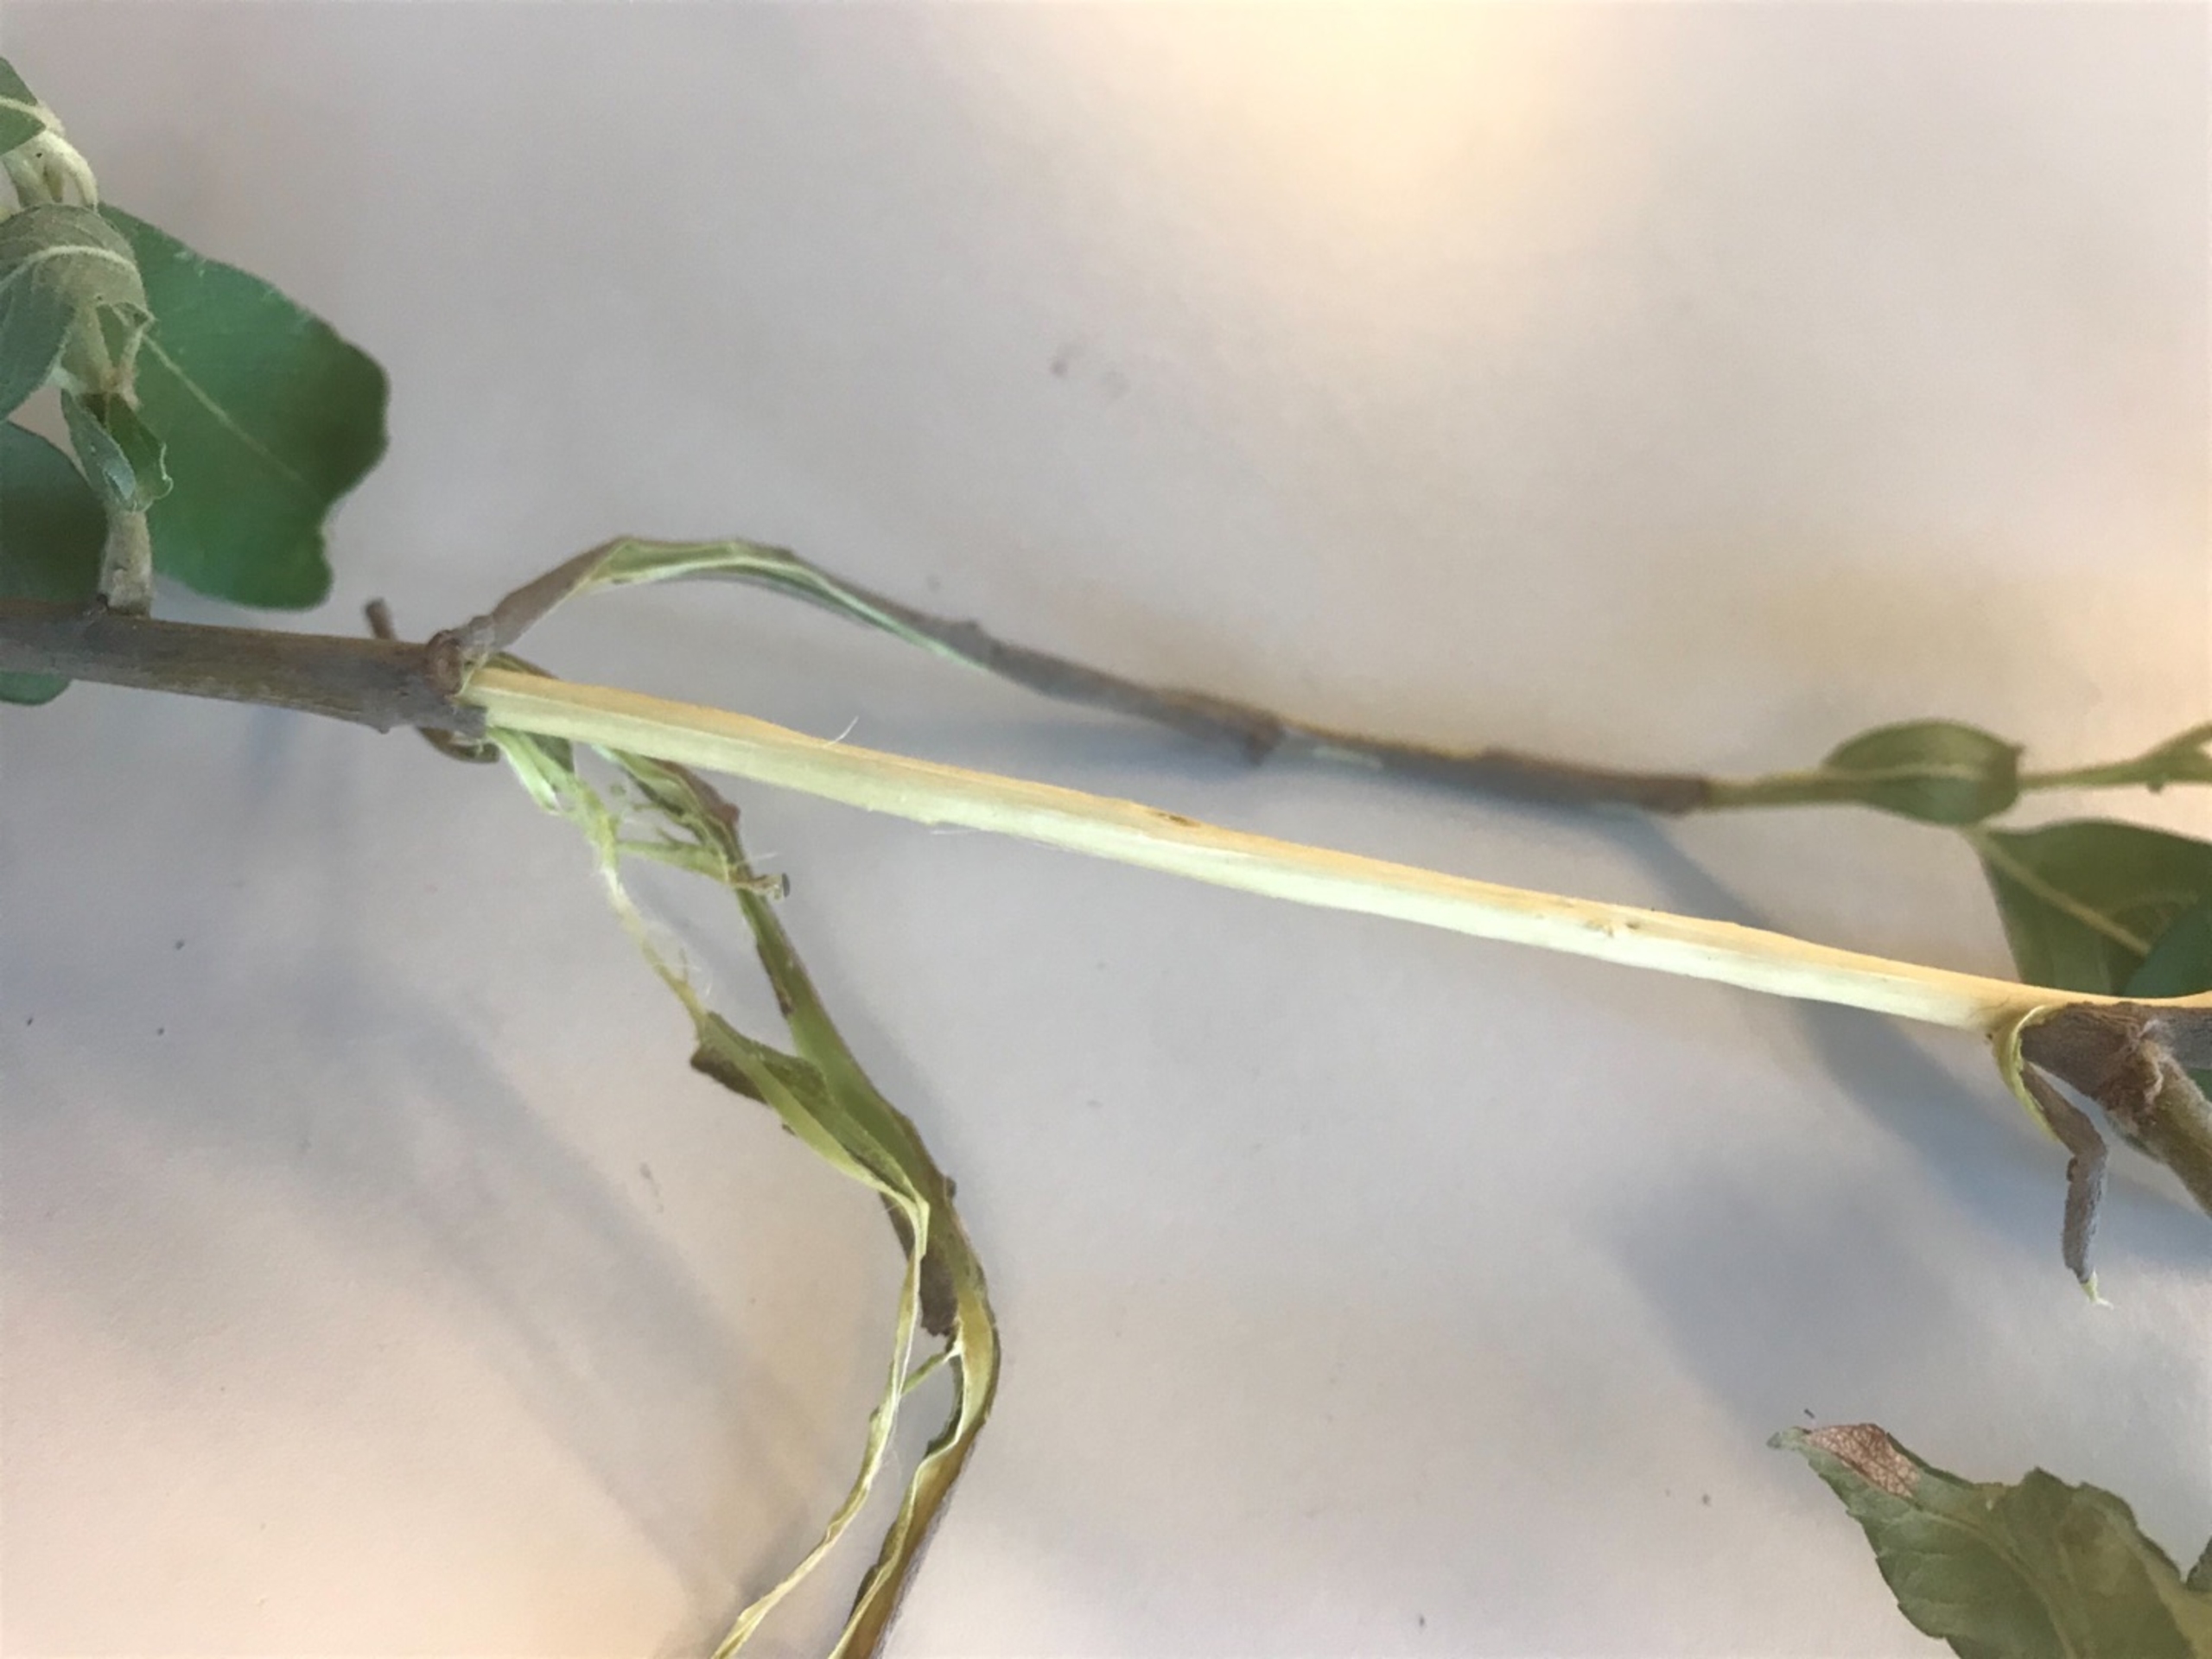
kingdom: Plantae
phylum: Tracheophyta
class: Magnoliopsida
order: Malpighiales
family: Salicaceae
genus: Salix
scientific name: Salix cinerea
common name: Grå-pil
